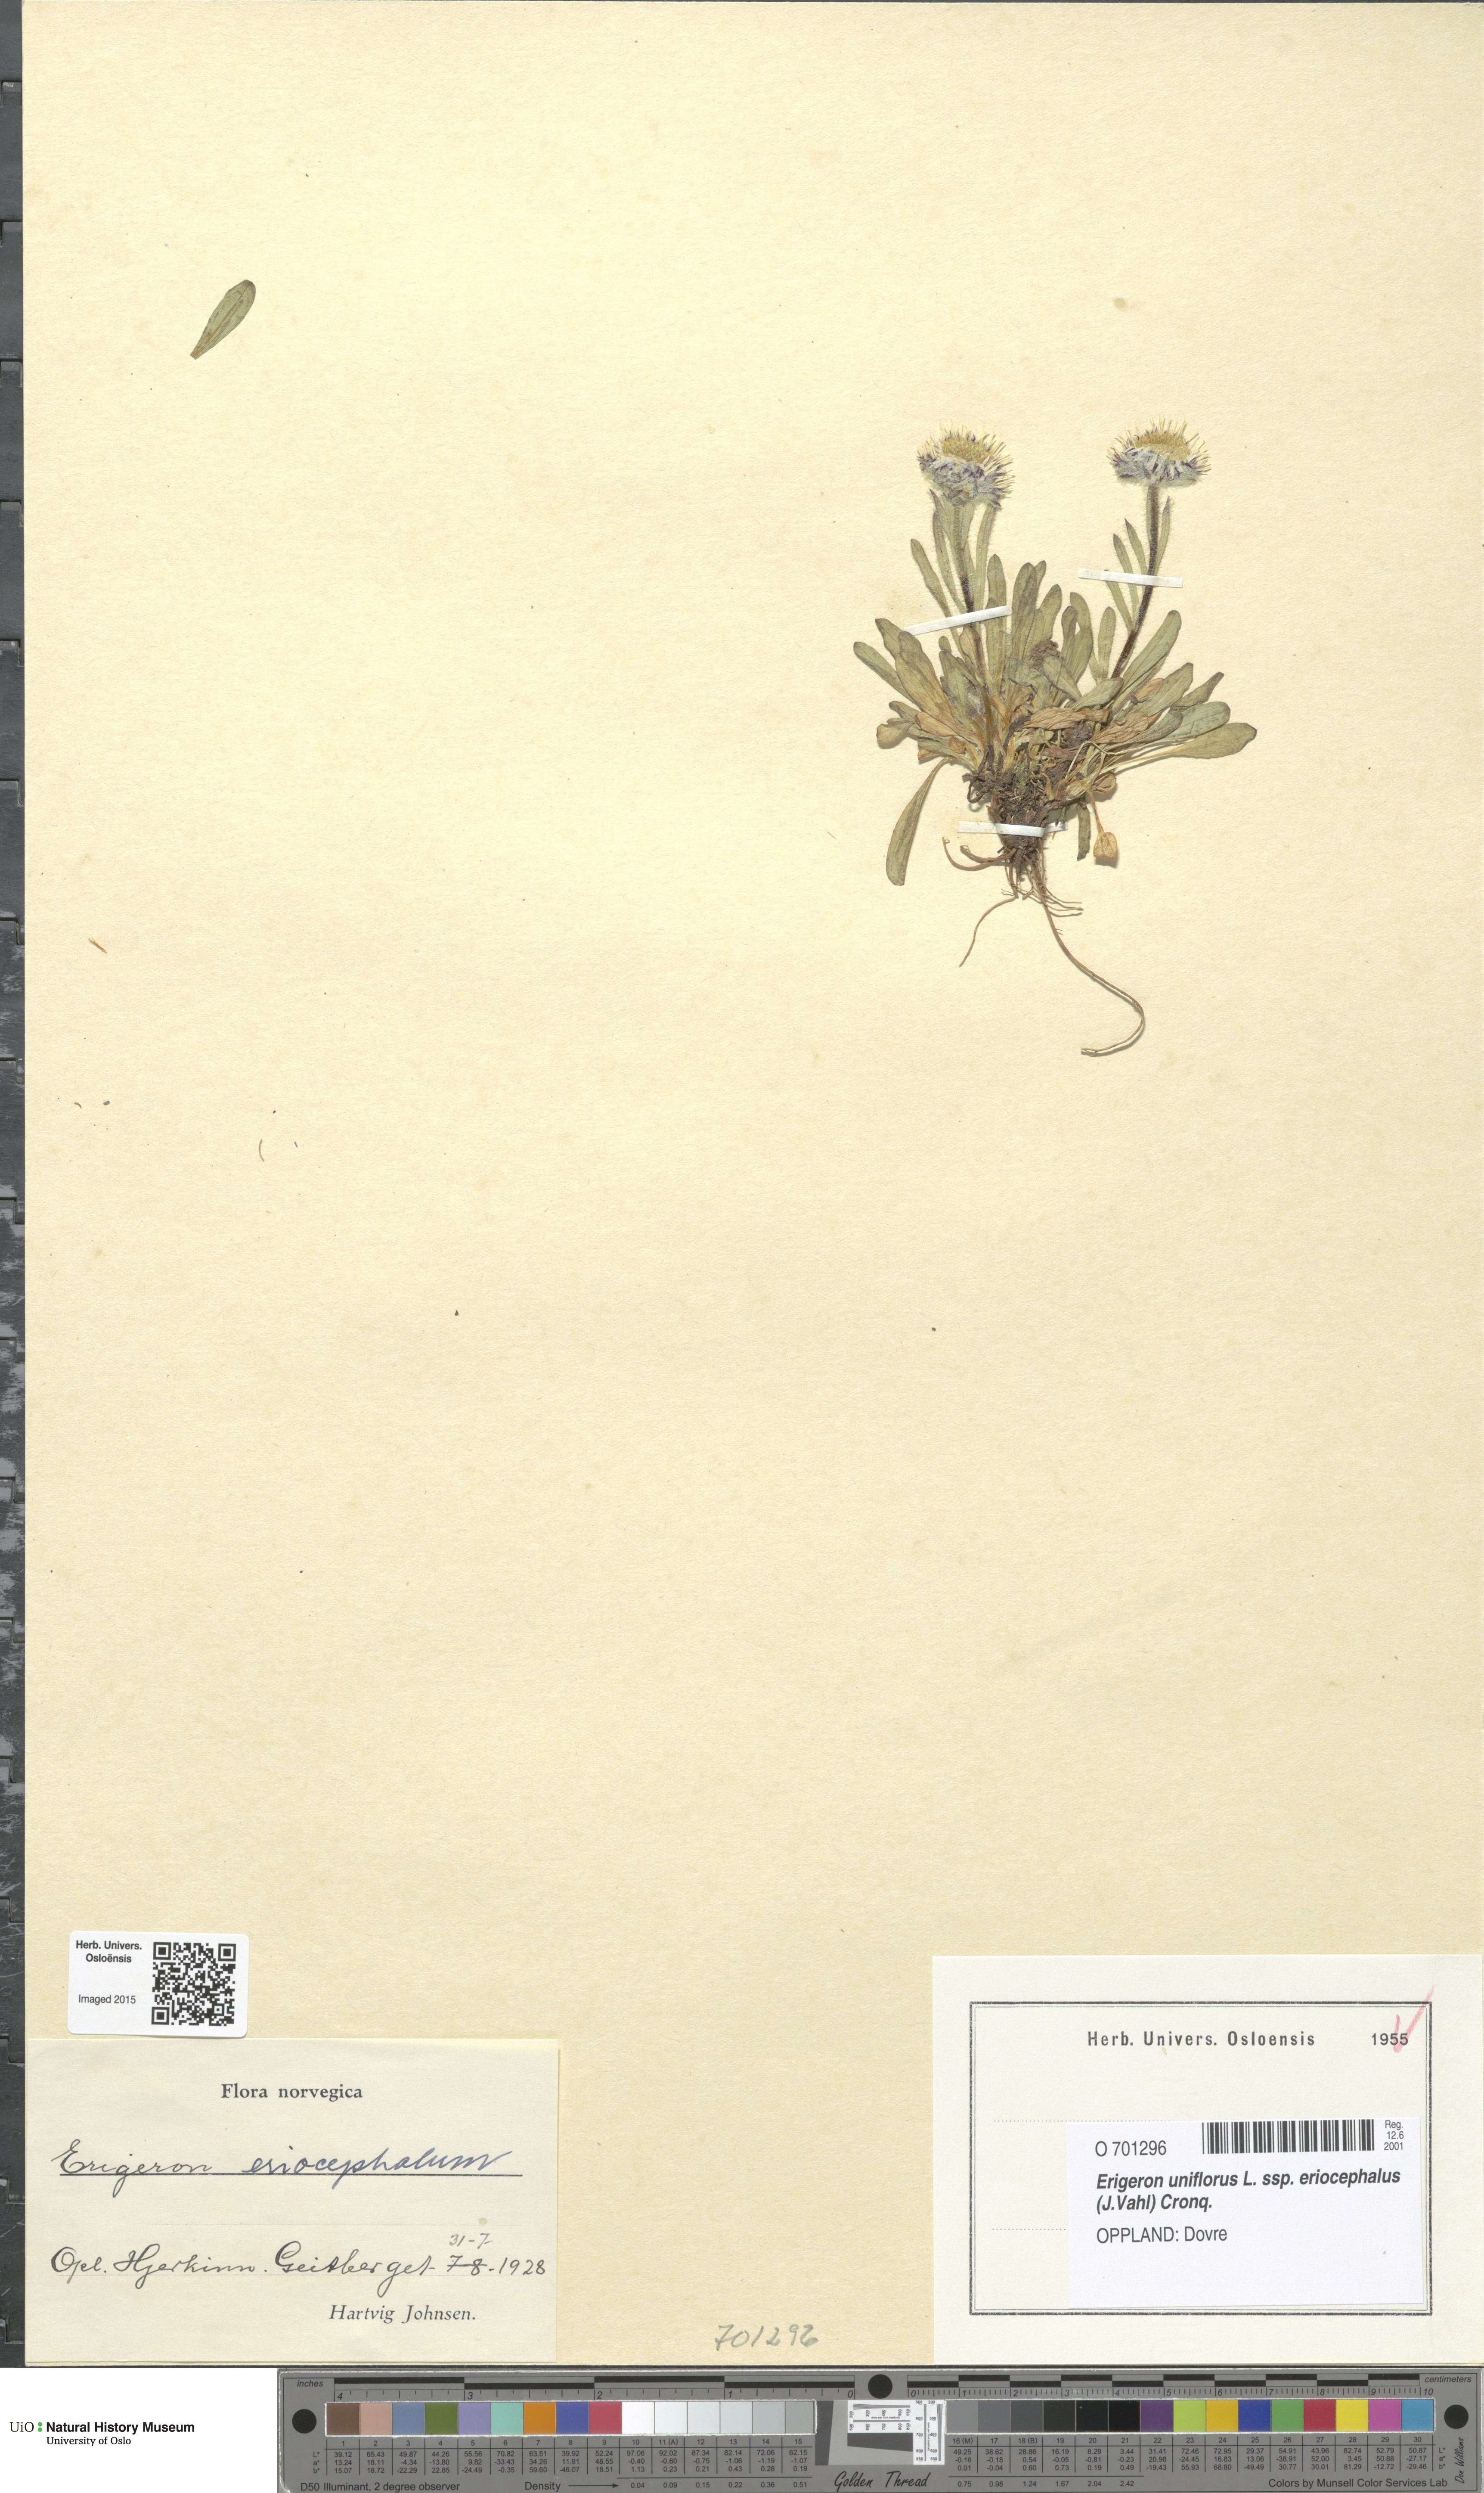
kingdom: Plantae
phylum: Tracheophyta
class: Magnoliopsida
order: Asterales
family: Asteraceae
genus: Erigeron
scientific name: Erigeron eriocephalus
